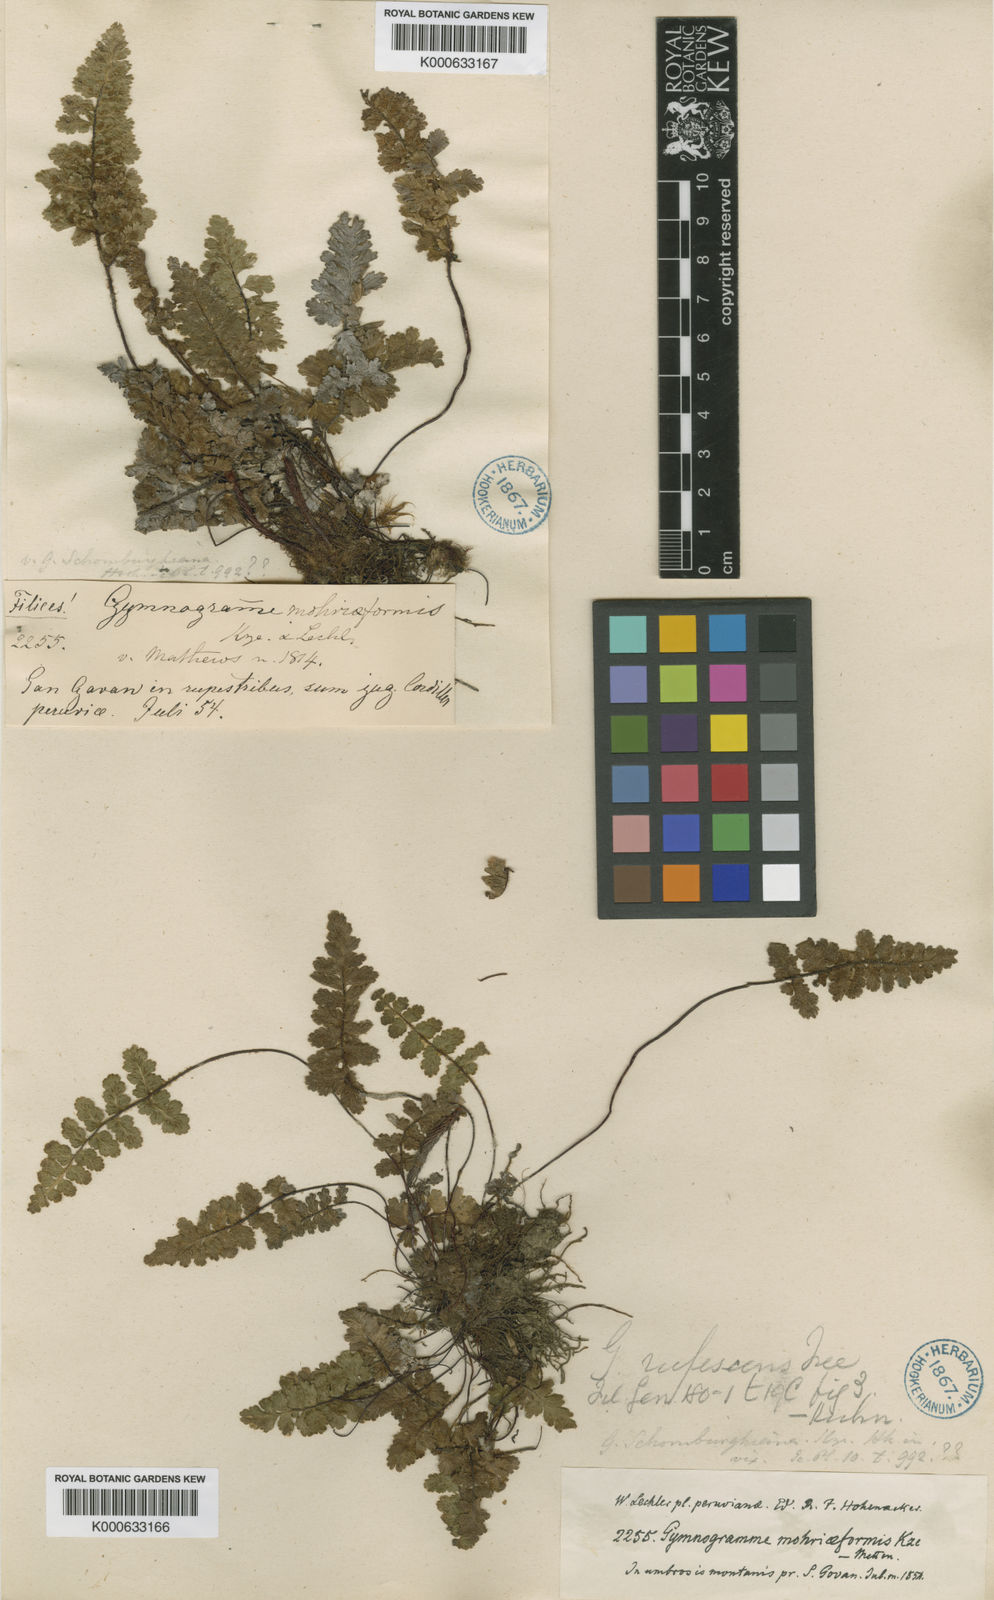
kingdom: Plantae
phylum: Tracheophyta
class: Polypodiopsida
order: Polypodiales
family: Pteridaceae
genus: Jamesonia
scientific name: Jamesonia
